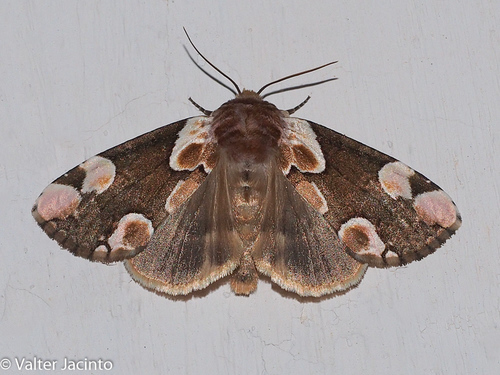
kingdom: Animalia
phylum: Arthropoda
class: Insecta
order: Lepidoptera
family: Drepanidae
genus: Thyatira
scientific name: Thyatira batis
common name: Peach blossom
